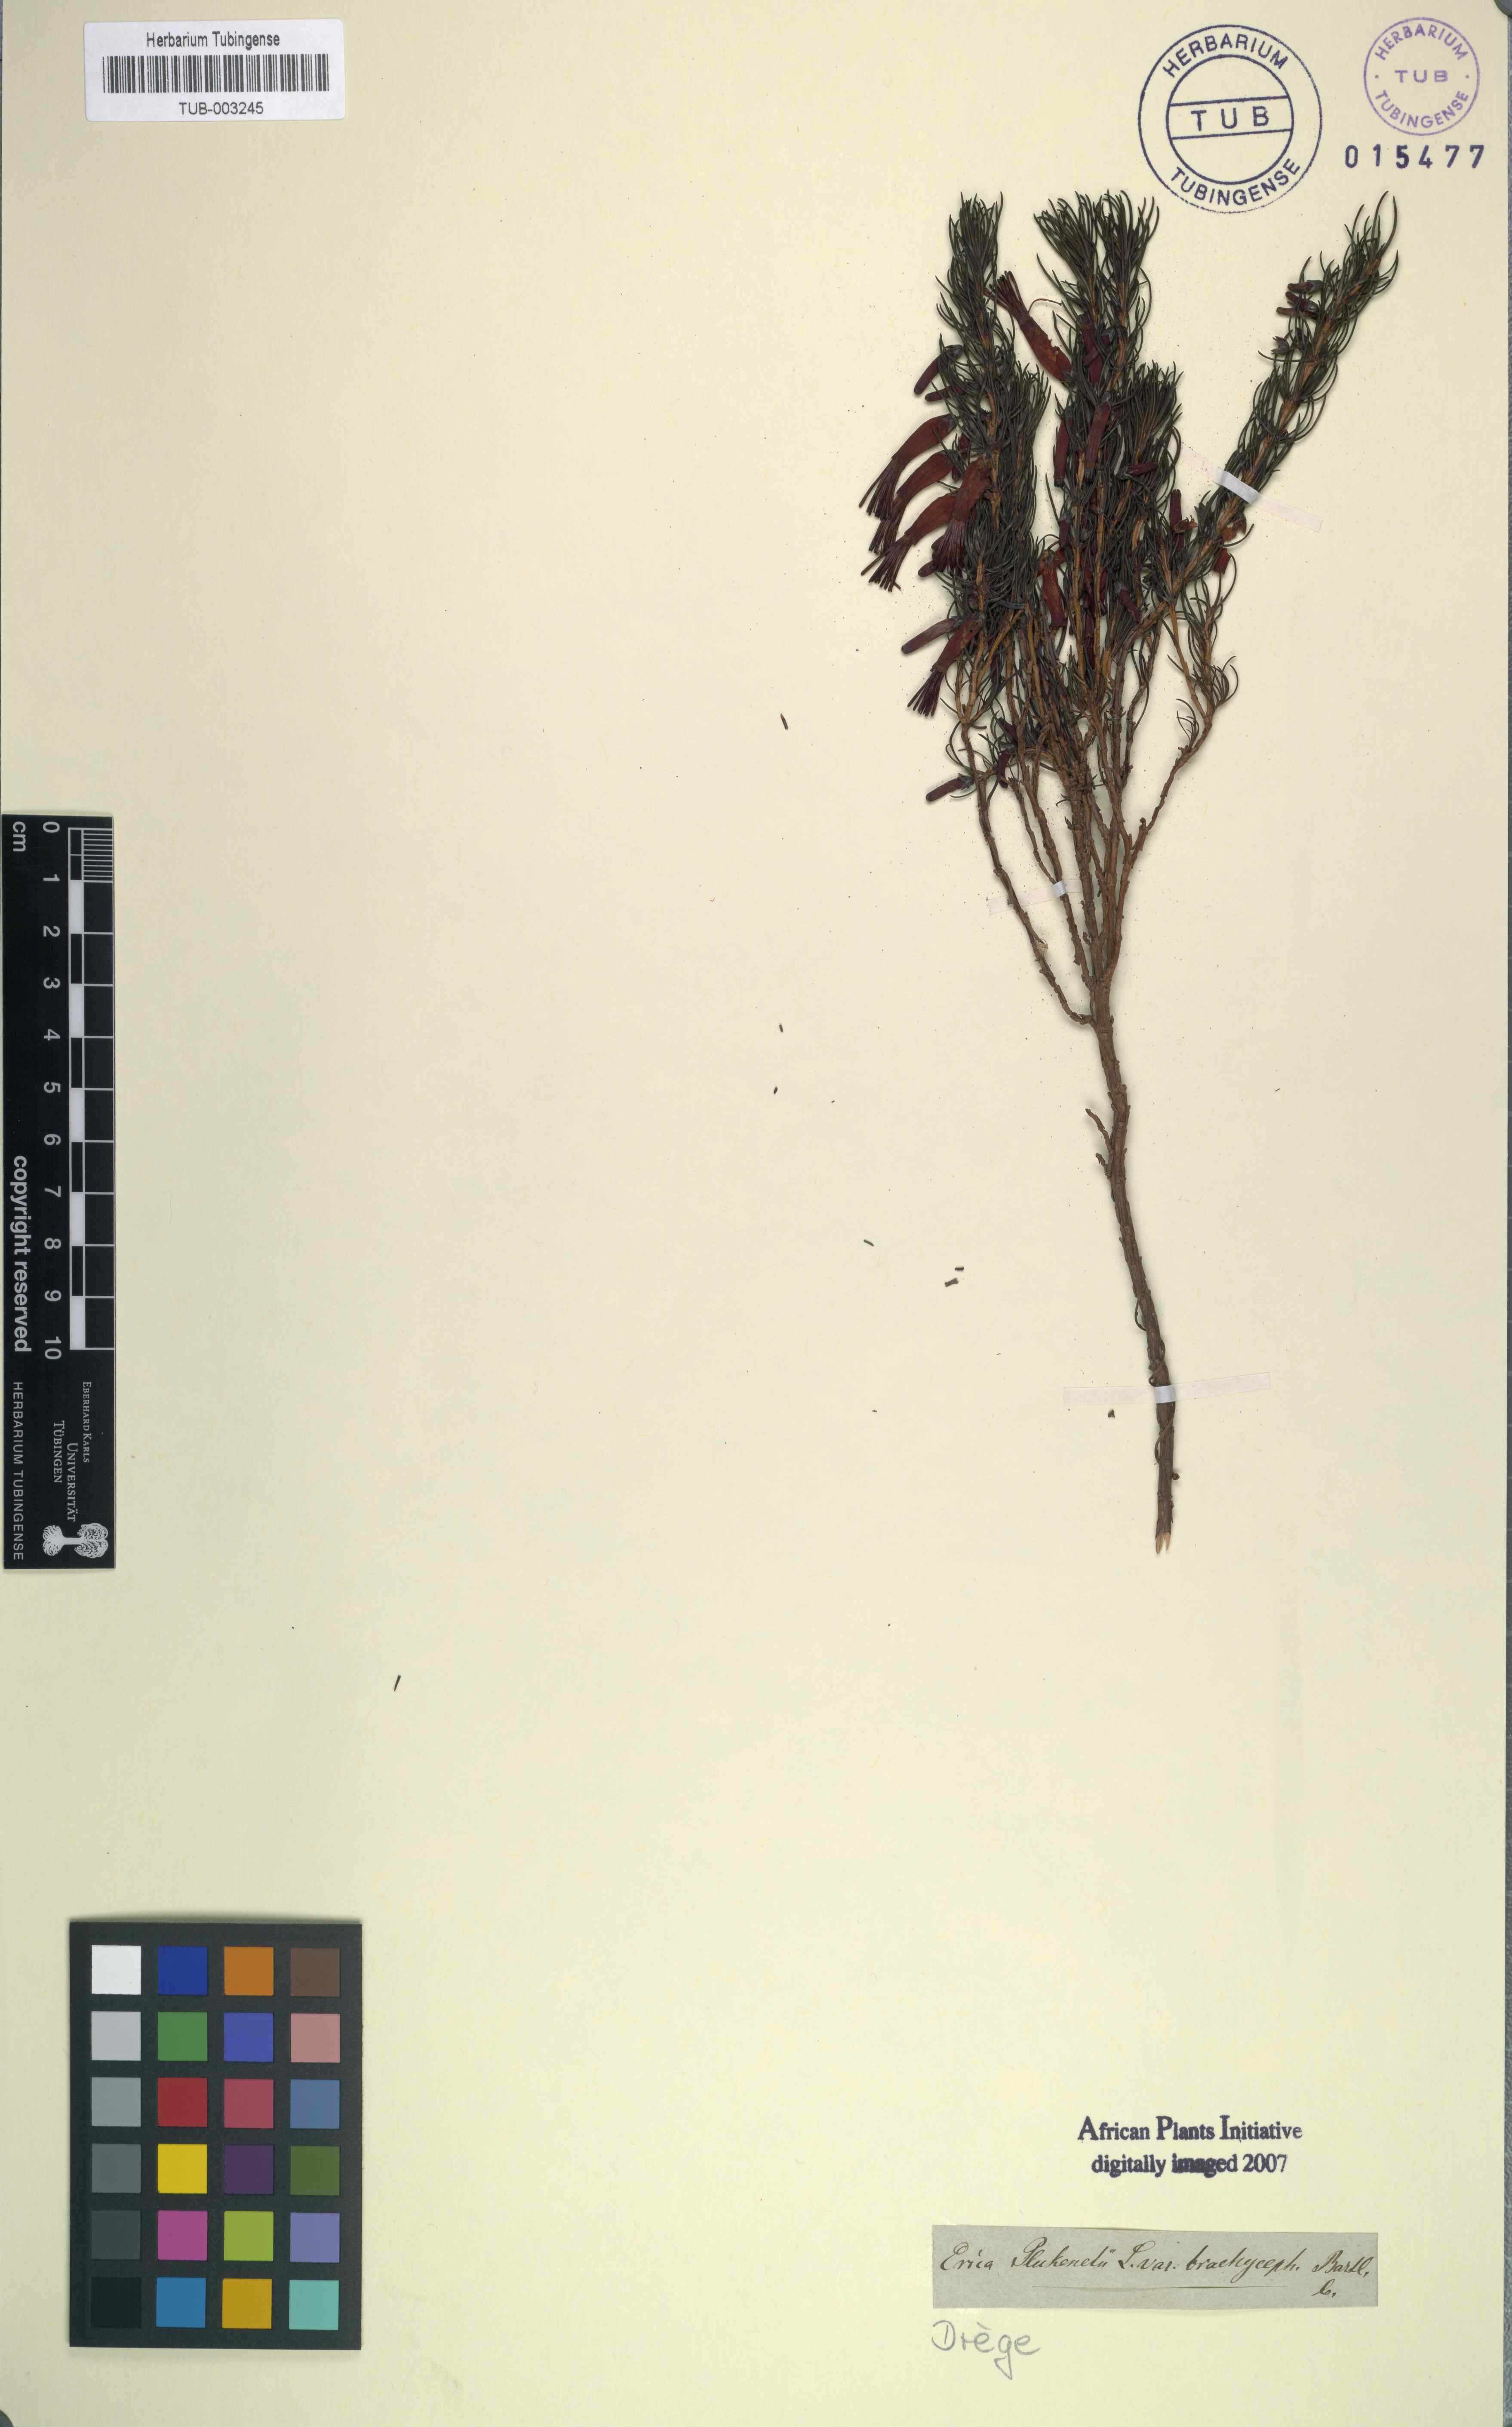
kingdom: Plantae
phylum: Tracheophyta
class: Magnoliopsida
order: Ericales
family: Ericaceae
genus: Erica
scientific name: Erica coccinea
